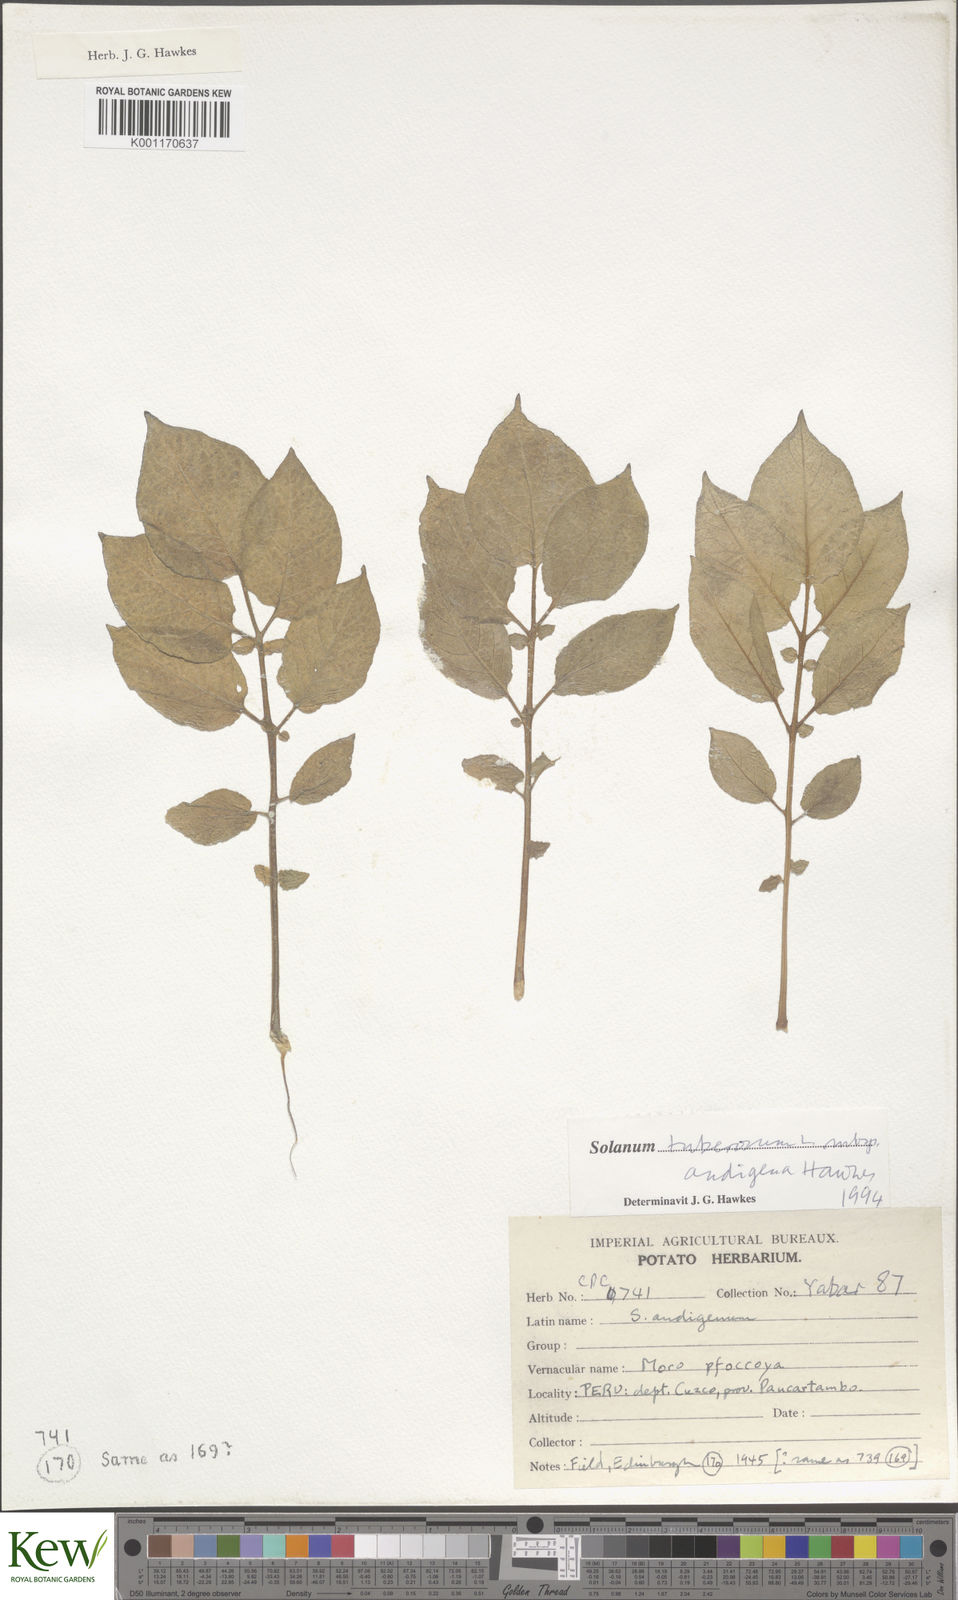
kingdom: Plantae
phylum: Tracheophyta
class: Magnoliopsida
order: Solanales
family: Solanaceae
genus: Solanum
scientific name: Solanum tuberosum
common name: Potato
